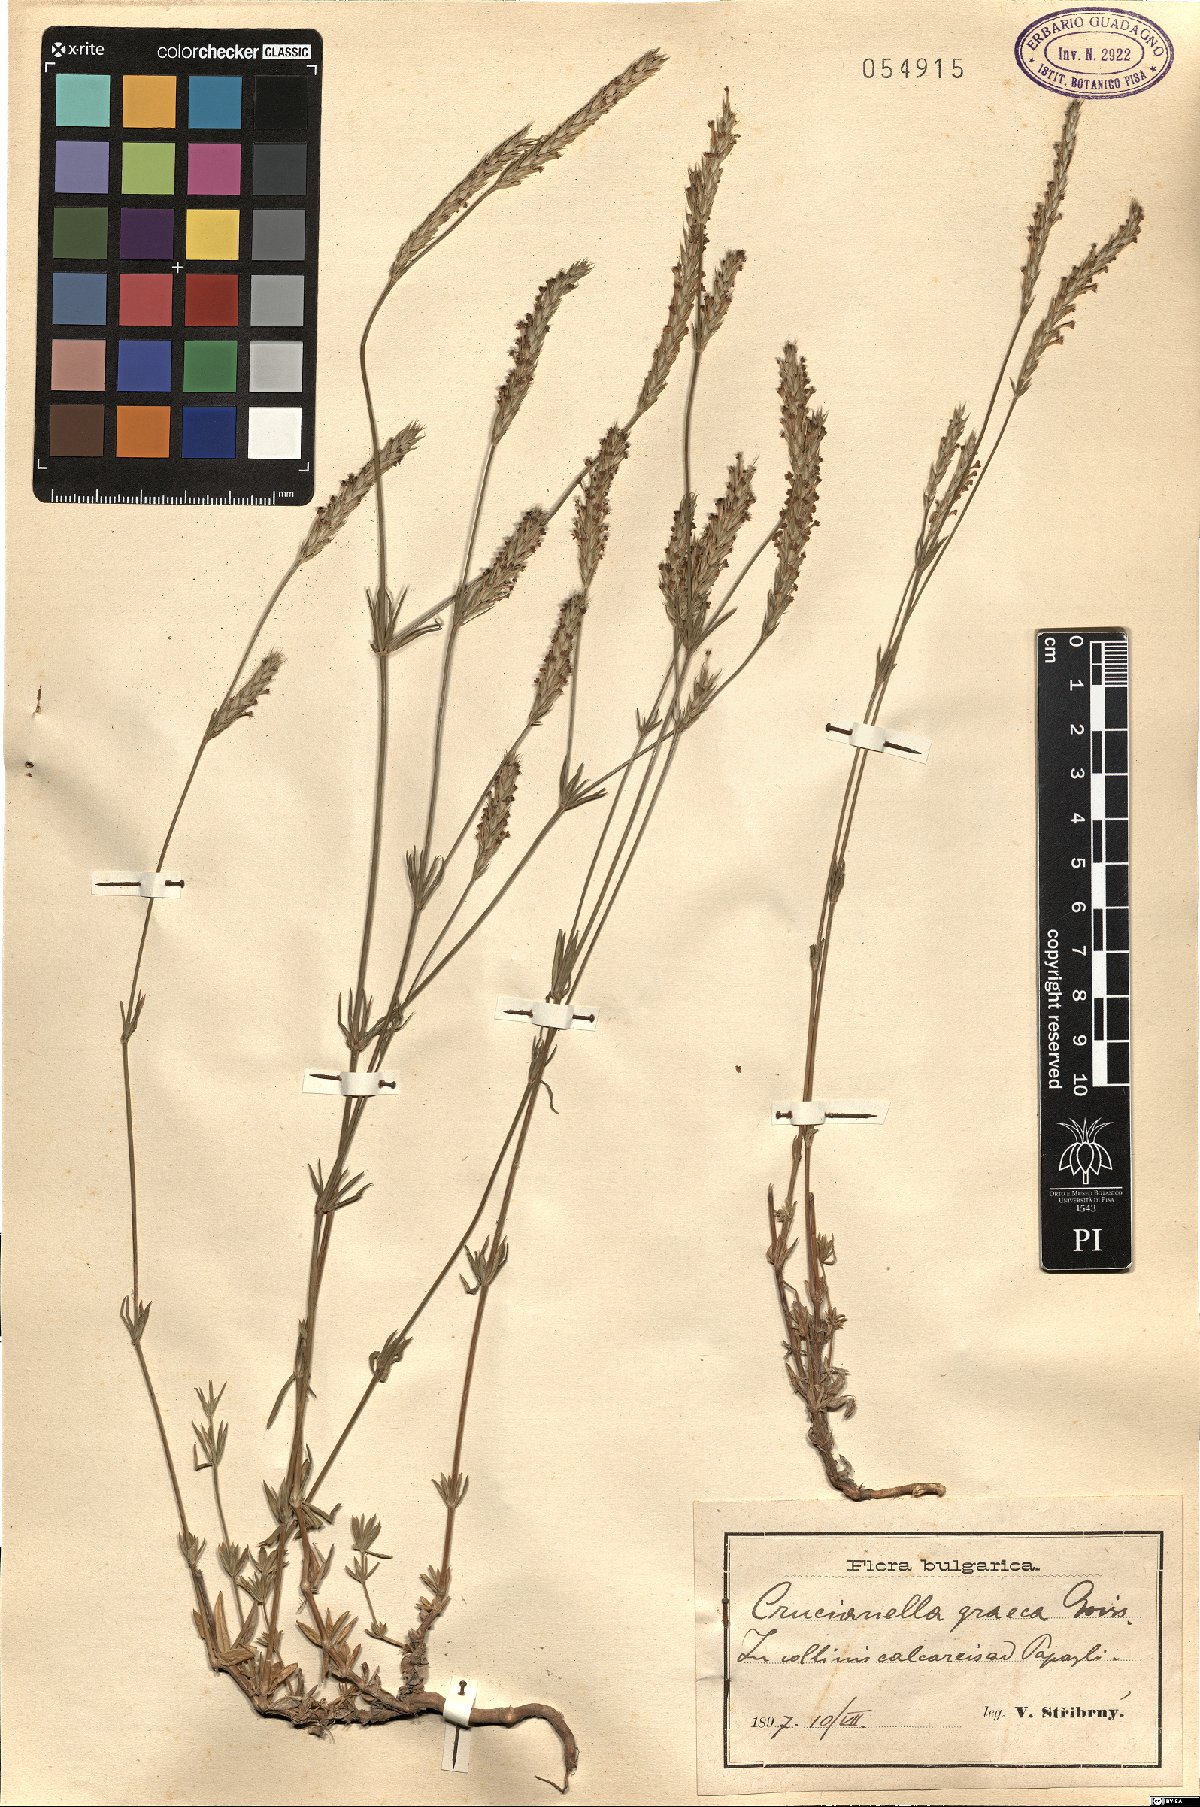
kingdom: Plantae
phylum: Tracheophyta
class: Magnoliopsida
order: Gentianales
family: Rubiaceae
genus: Crucianella
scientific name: Crucianella graeca
